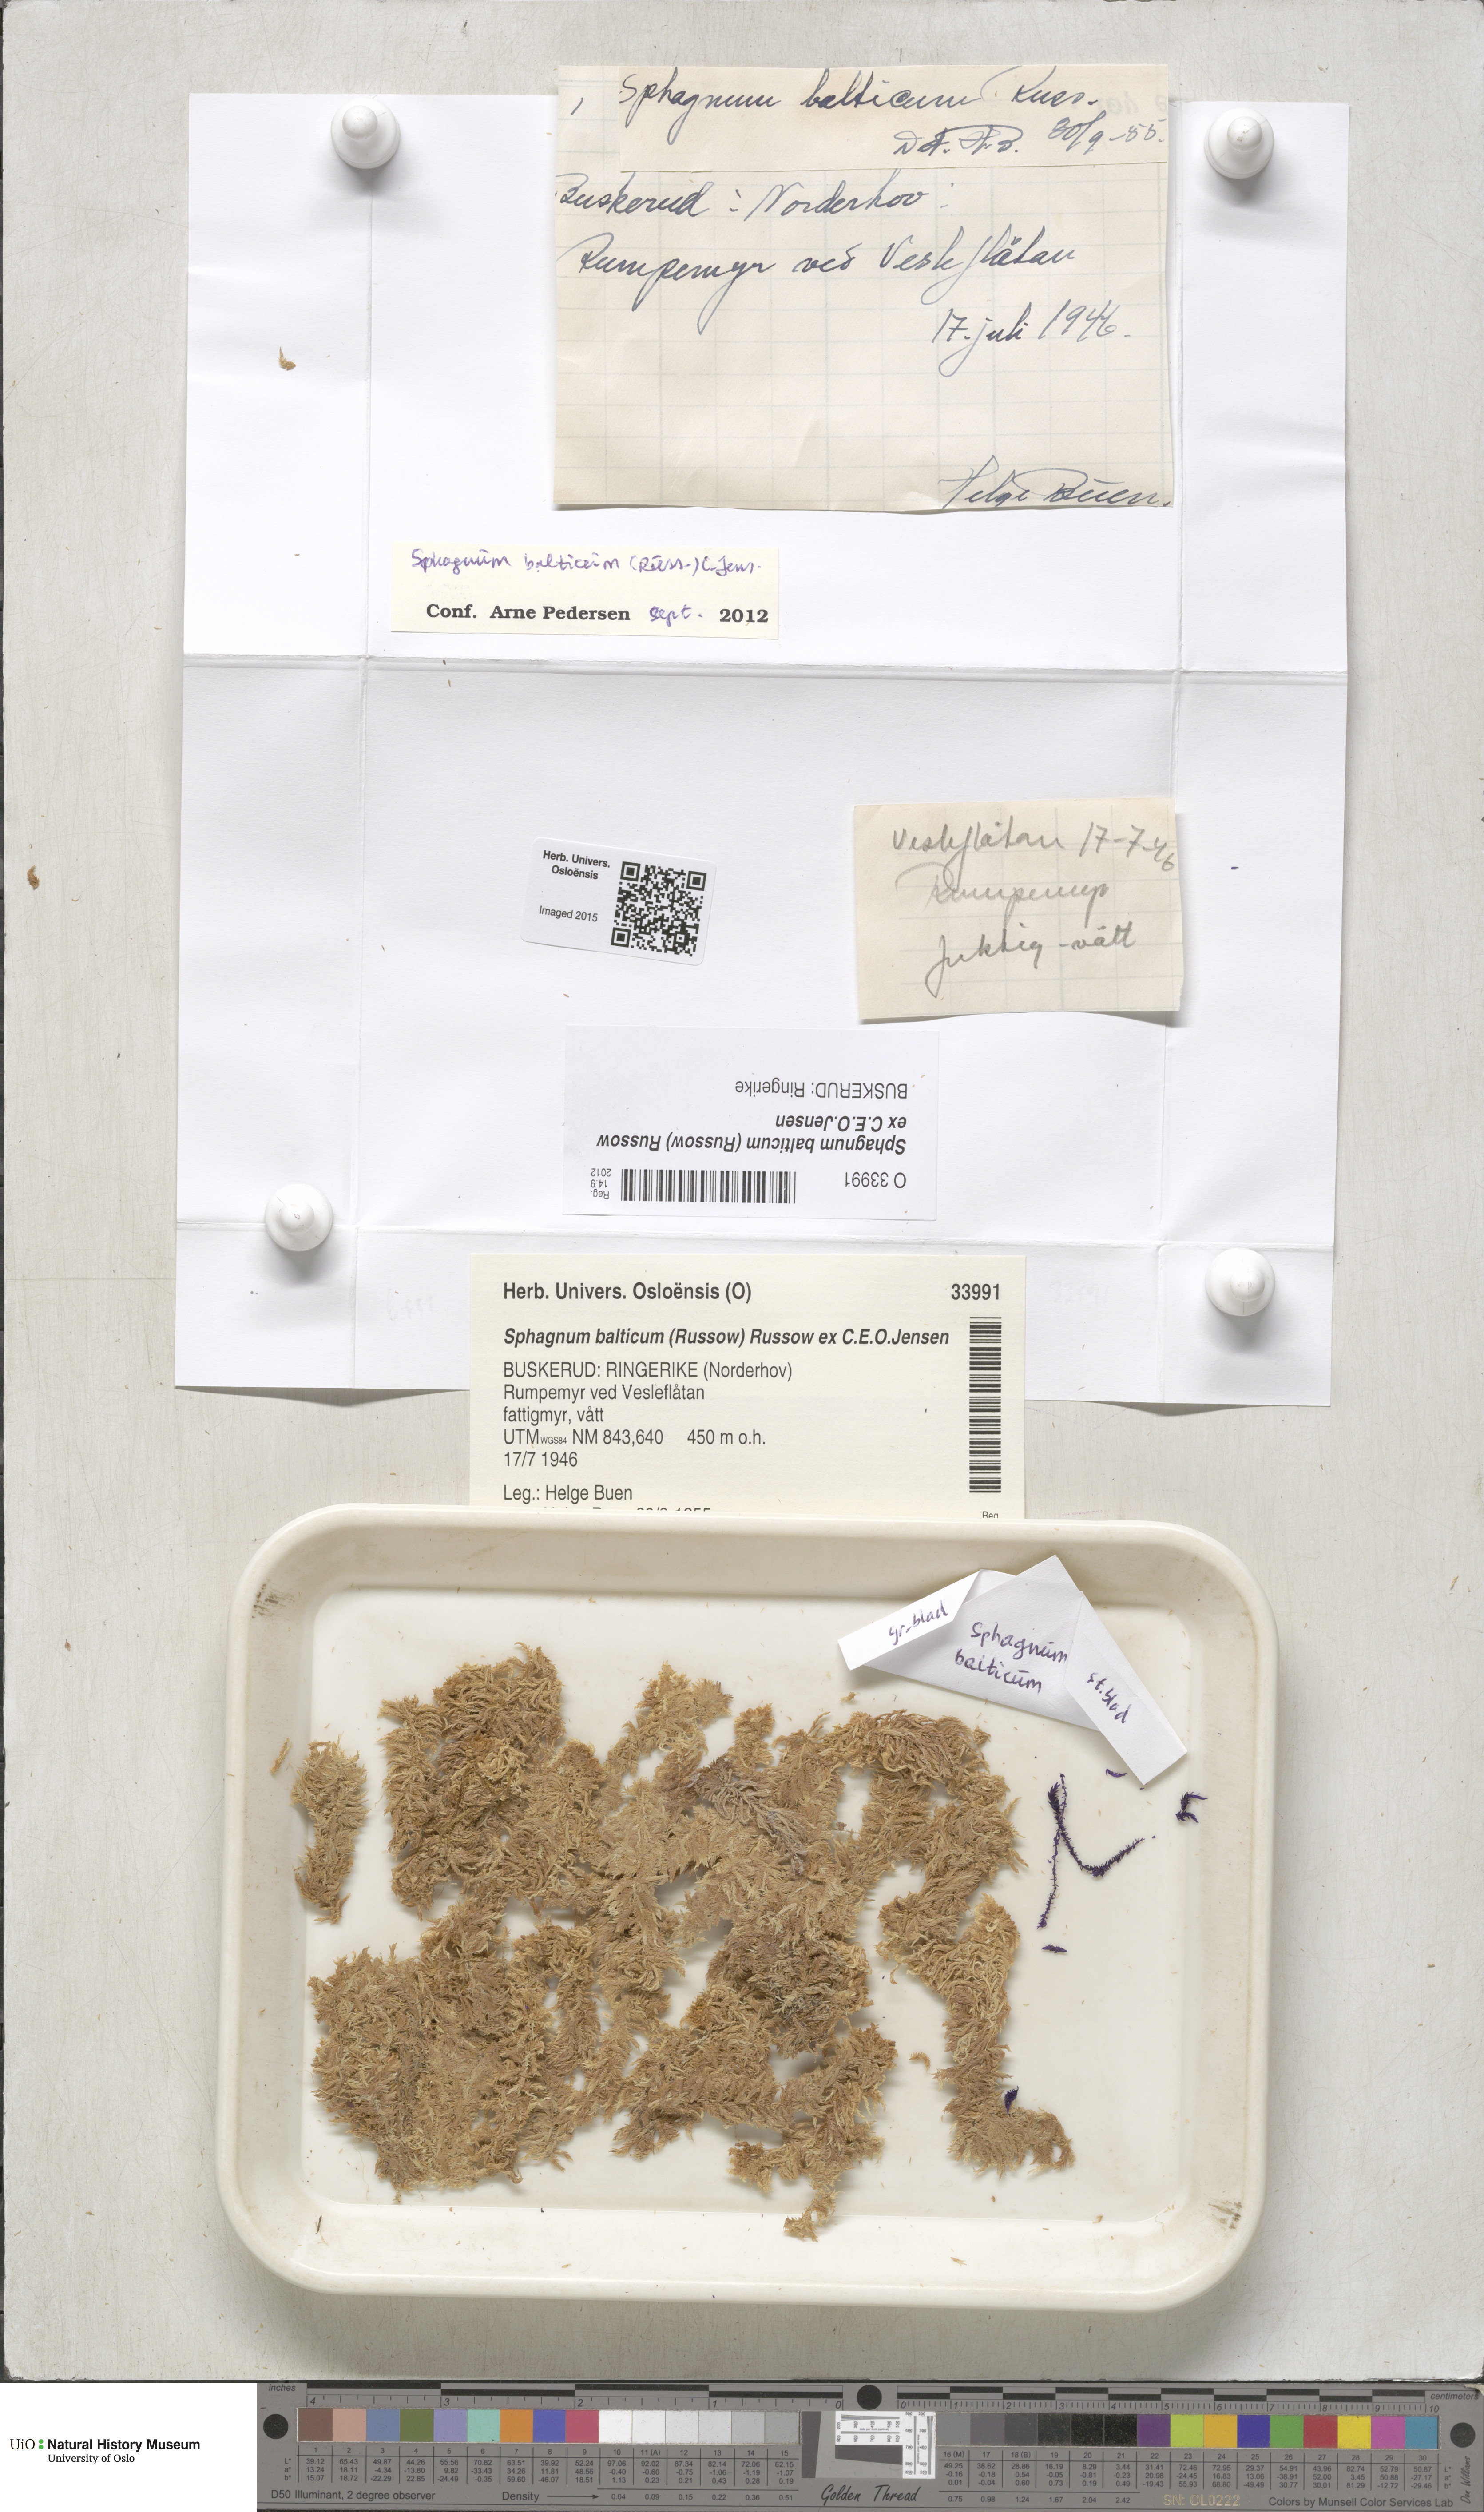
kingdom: Plantae
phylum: Bryophyta
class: Sphagnopsida
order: Sphagnales
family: Sphagnaceae
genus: Sphagnum
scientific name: Sphagnum balticum
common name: Baltic bog-moss
